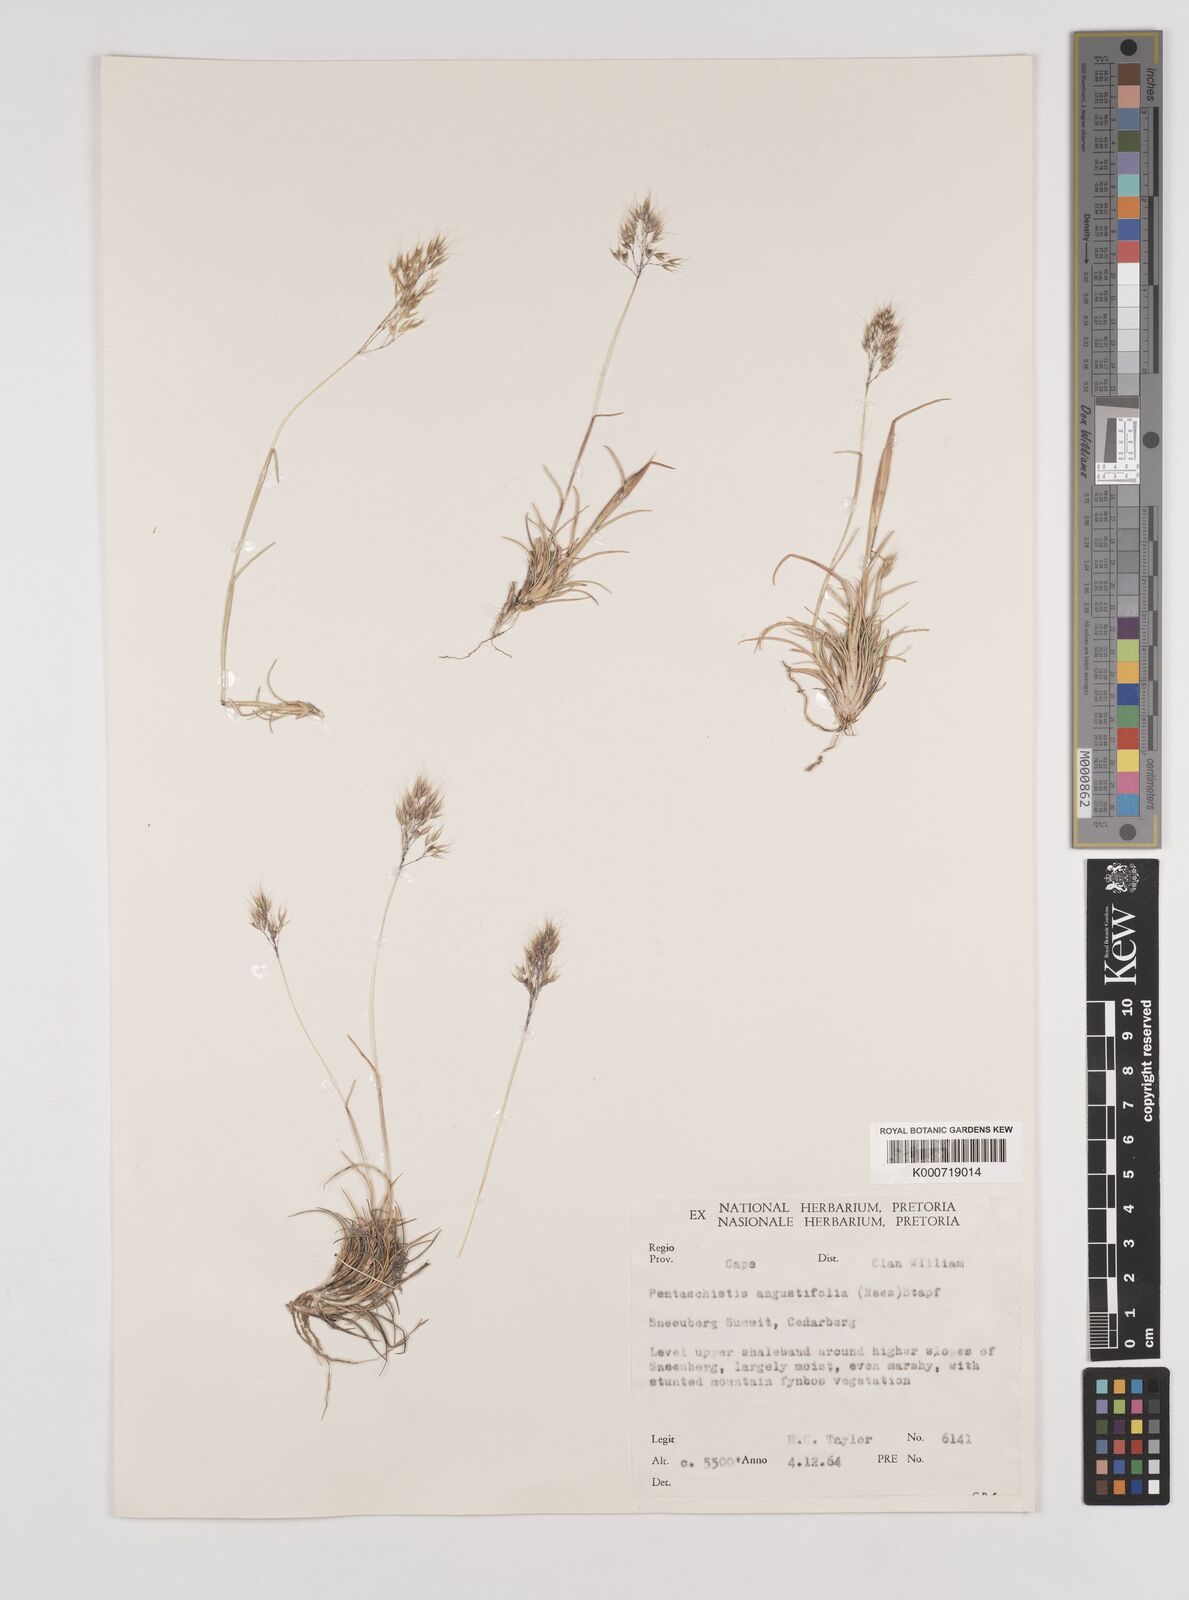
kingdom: Plantae
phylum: Tracheophyta
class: Liliopsida
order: Poales
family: Poaceae
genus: Pentameris
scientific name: Pentameris pallida
